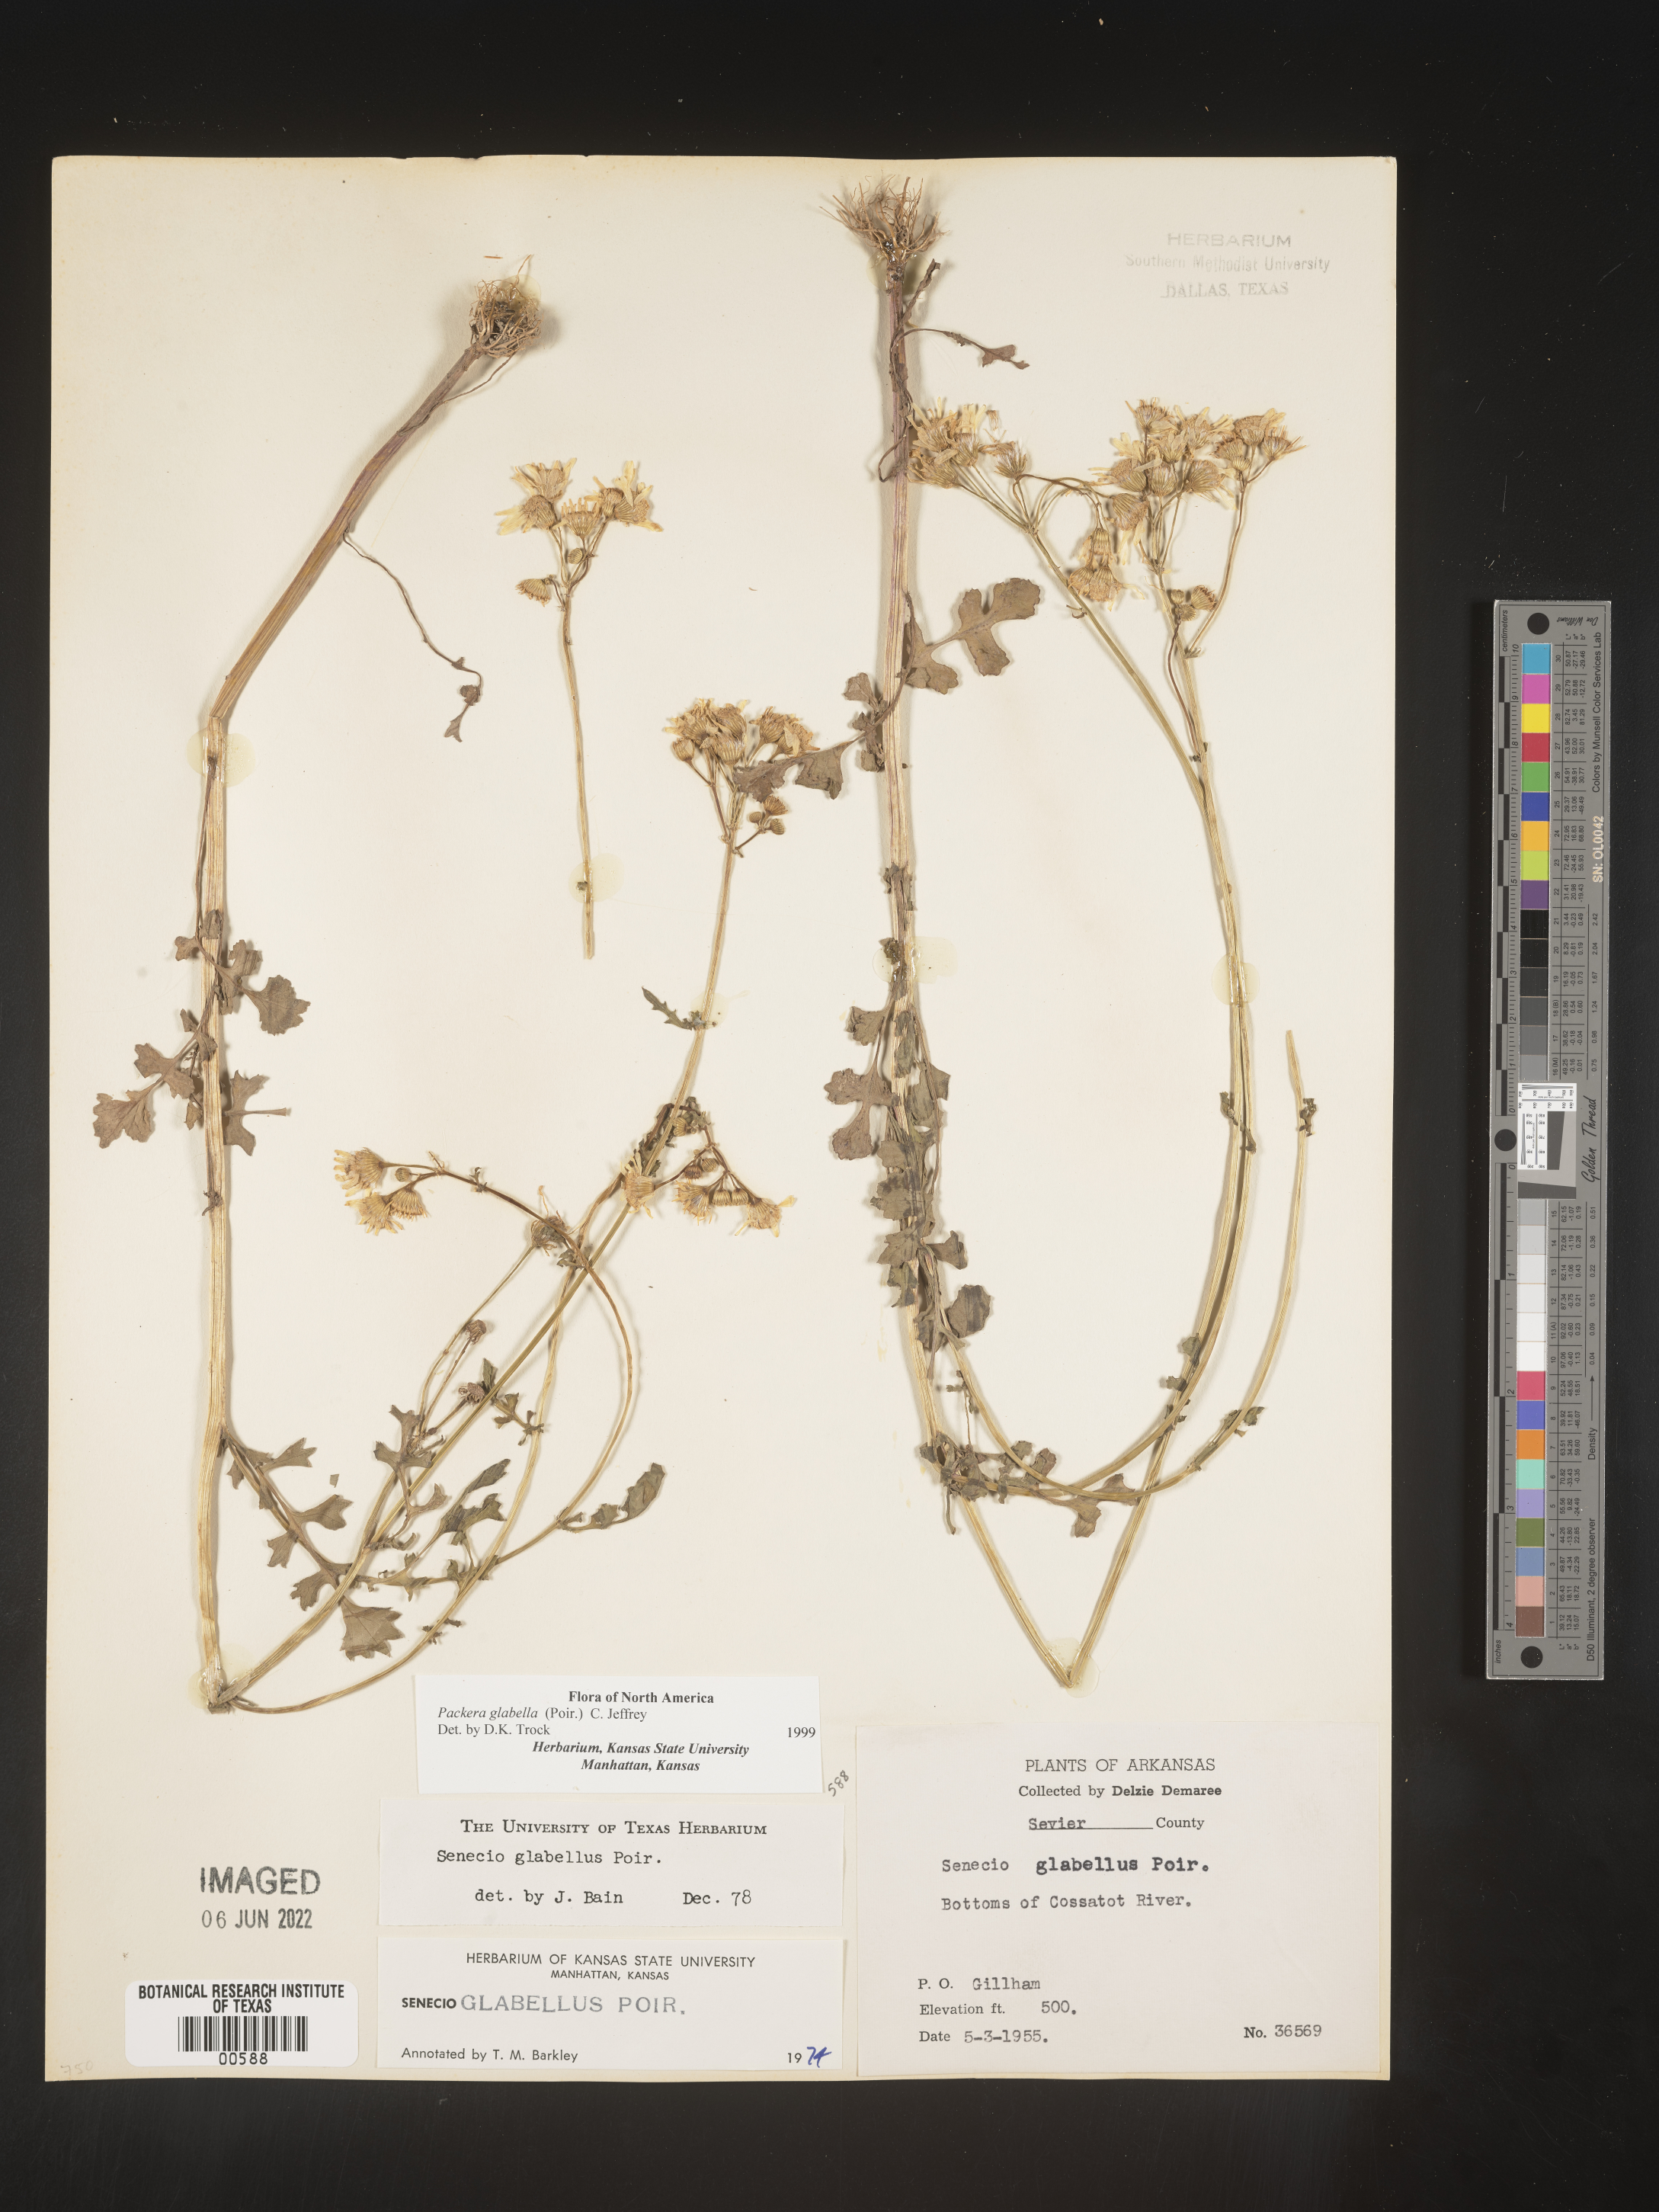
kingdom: Plantae
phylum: Tracheophyta
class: Magnoliopsida
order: Asterales
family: Asteraceae
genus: Packera
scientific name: Packera glabella
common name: Butterweed
